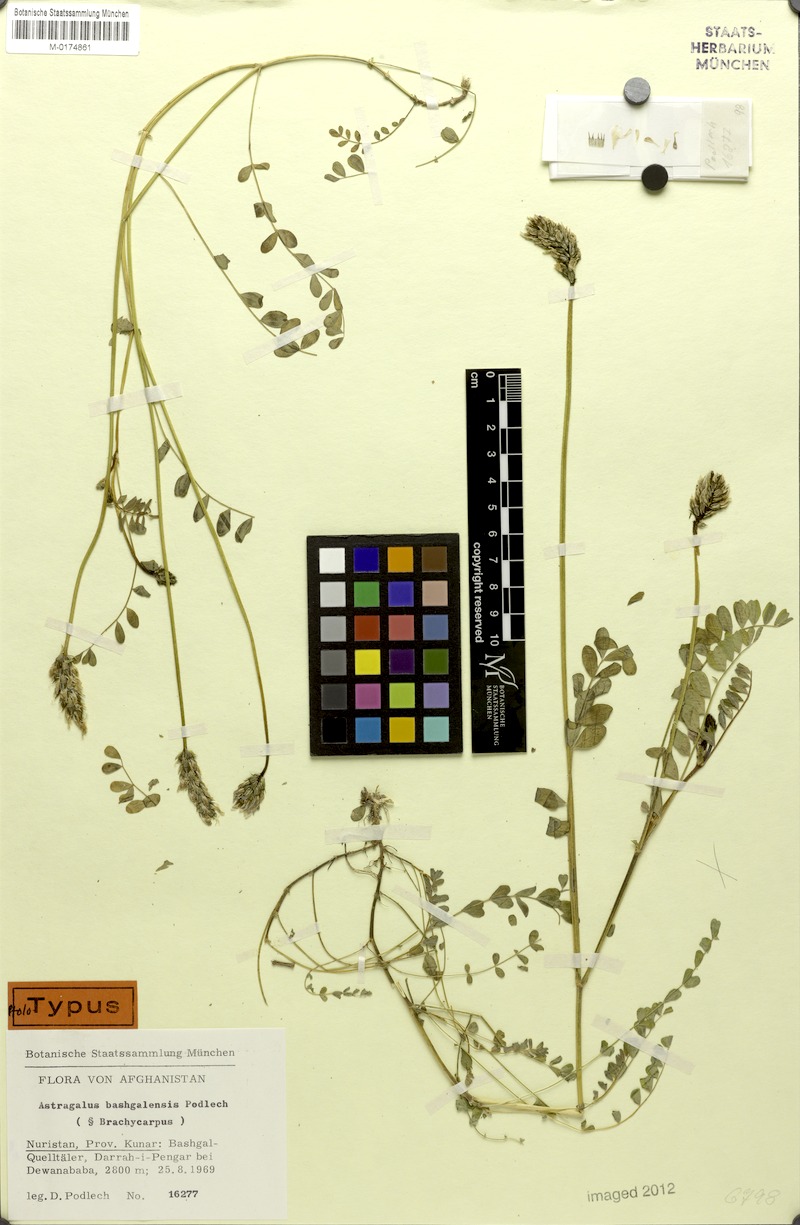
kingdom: Plantae
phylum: Tracheophyta
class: Magnoliopsida
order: Fabales
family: Fabaceae
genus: Astragalus
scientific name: Astragalus bashgalensis
